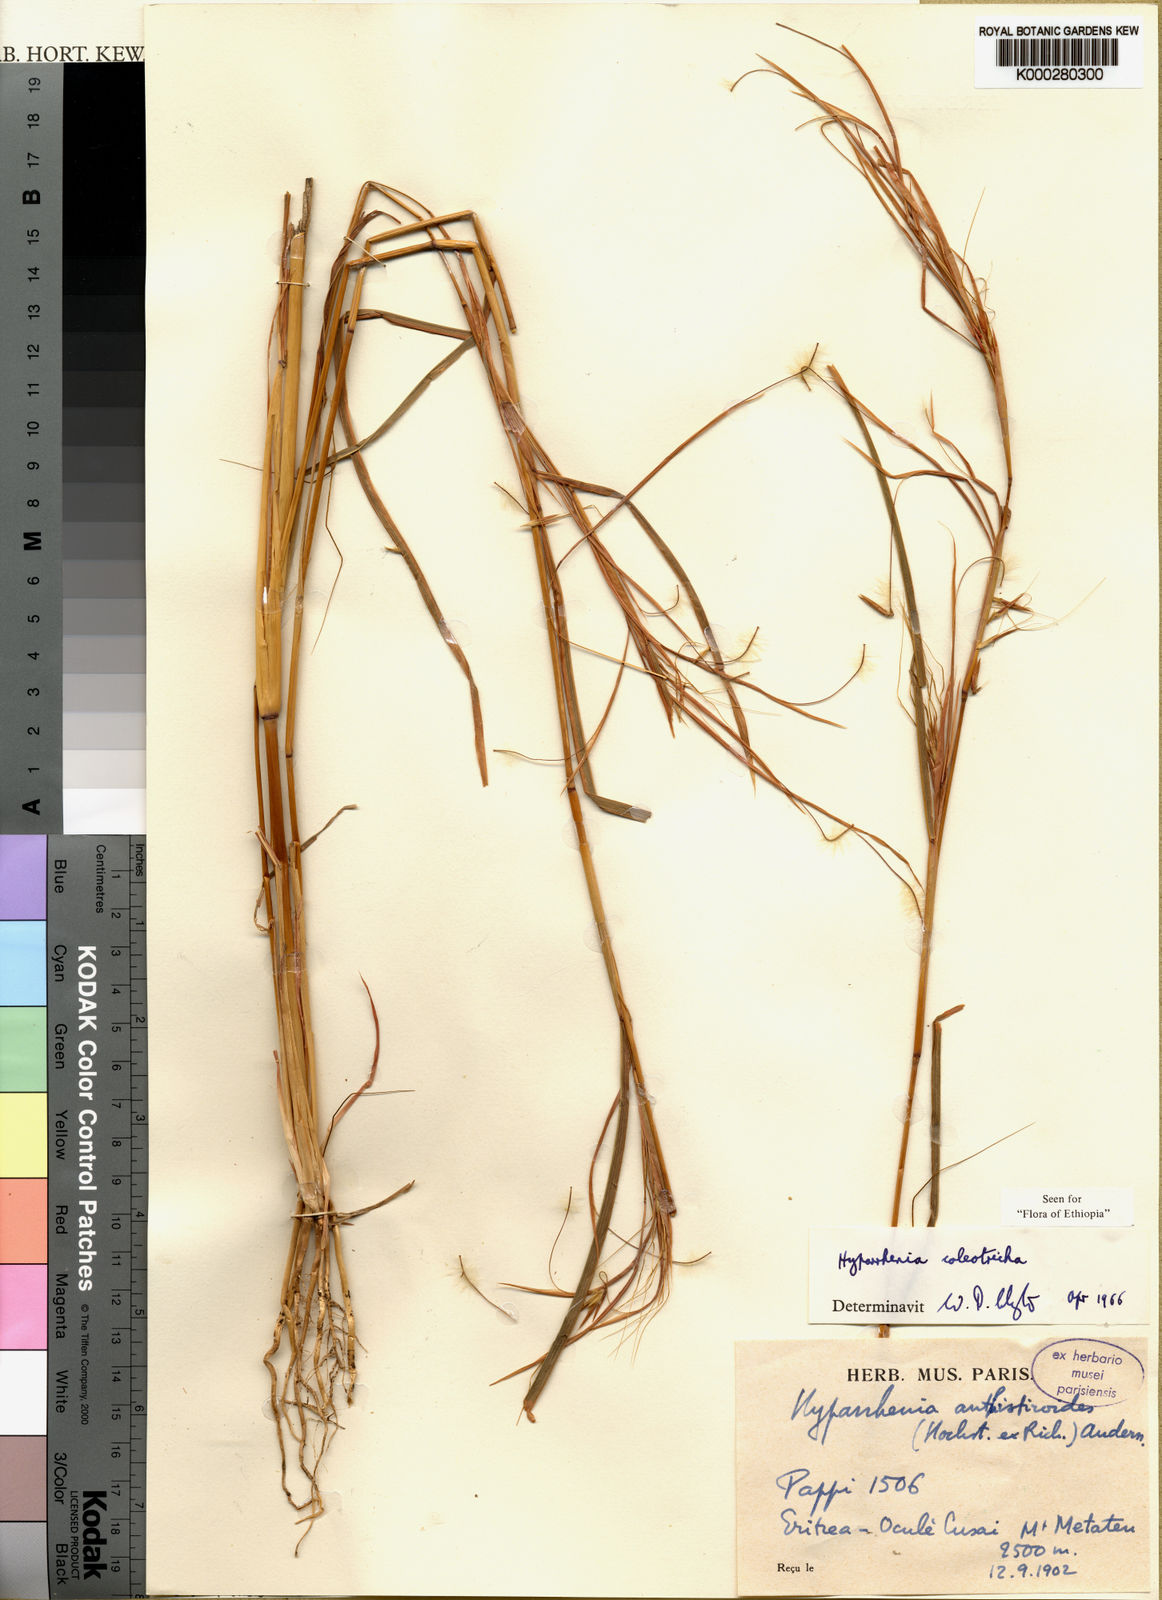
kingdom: Plantae
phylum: Tracheophyta
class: Liliopsida
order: Poales
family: Poaceae
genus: Hyparrhenia
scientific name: Hyparrhenia coleotricha
